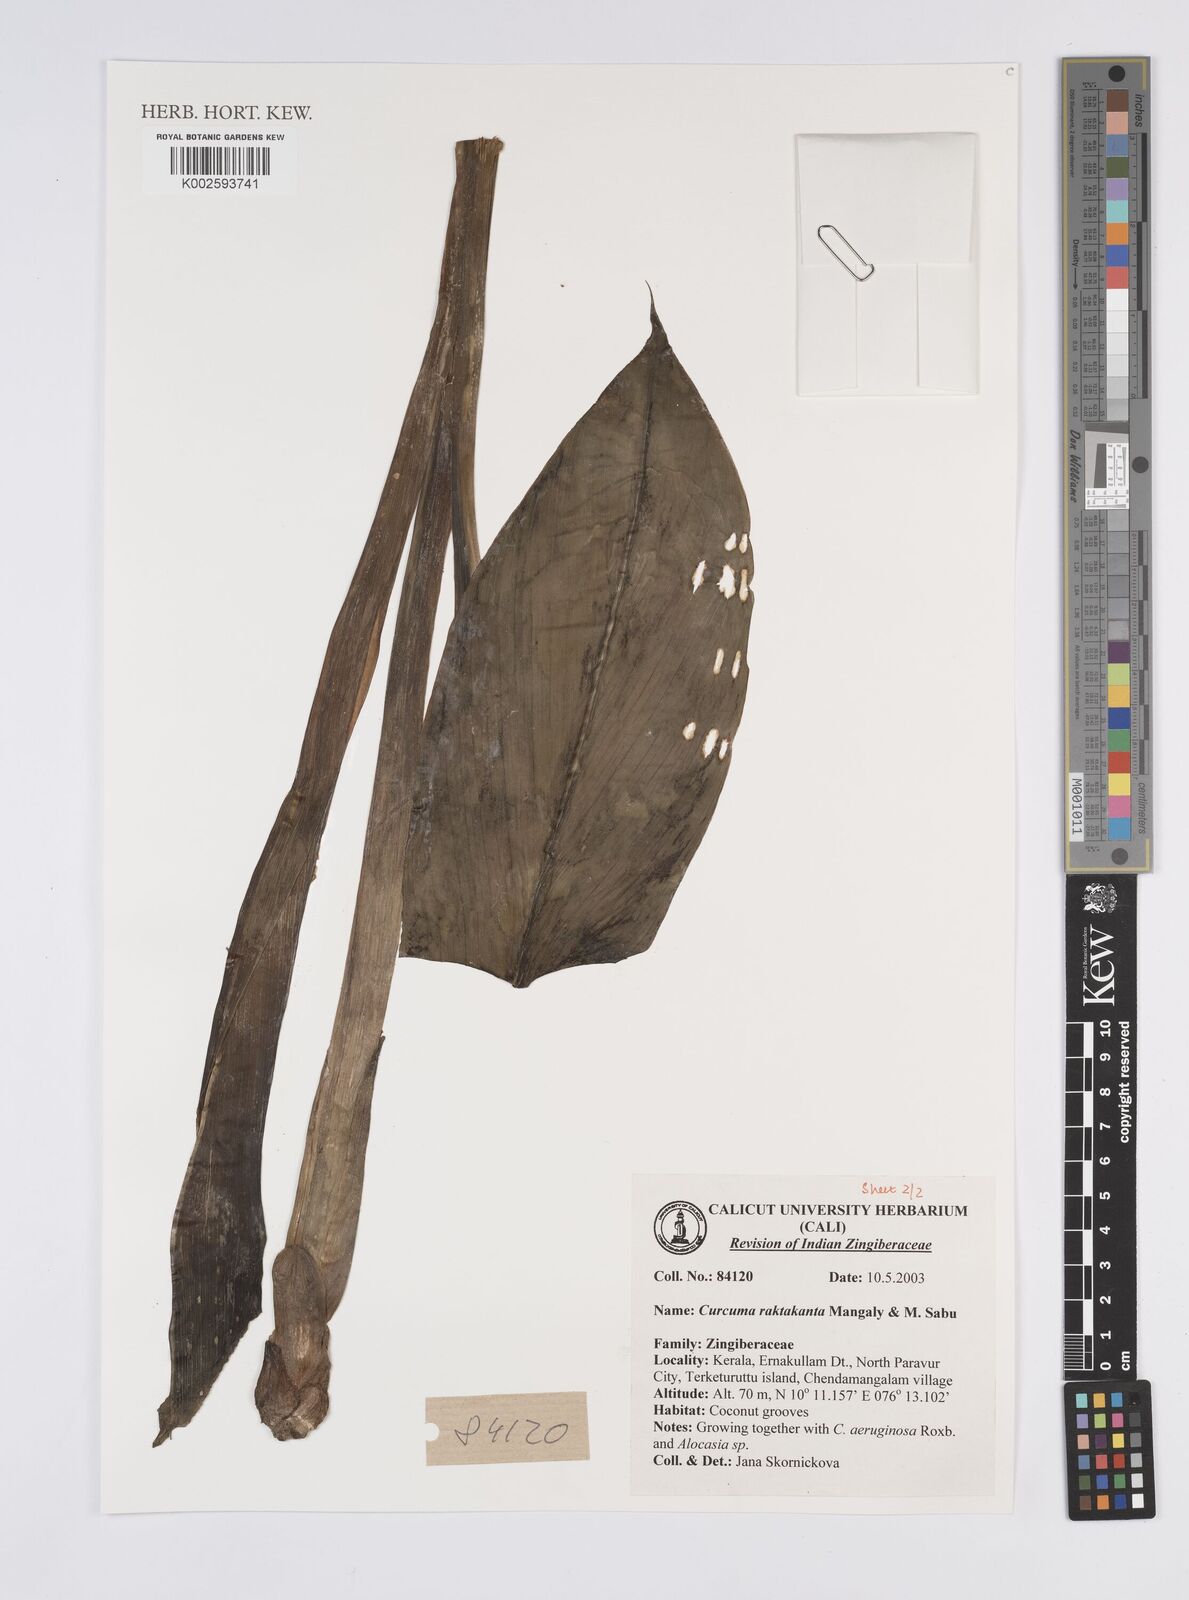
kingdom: Plantae
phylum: Tracheophyta
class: Liliopsida
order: Zingiberales
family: Zingiberaceae
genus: Curcuma
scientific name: Curcuma zedoaria
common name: Zedoary
